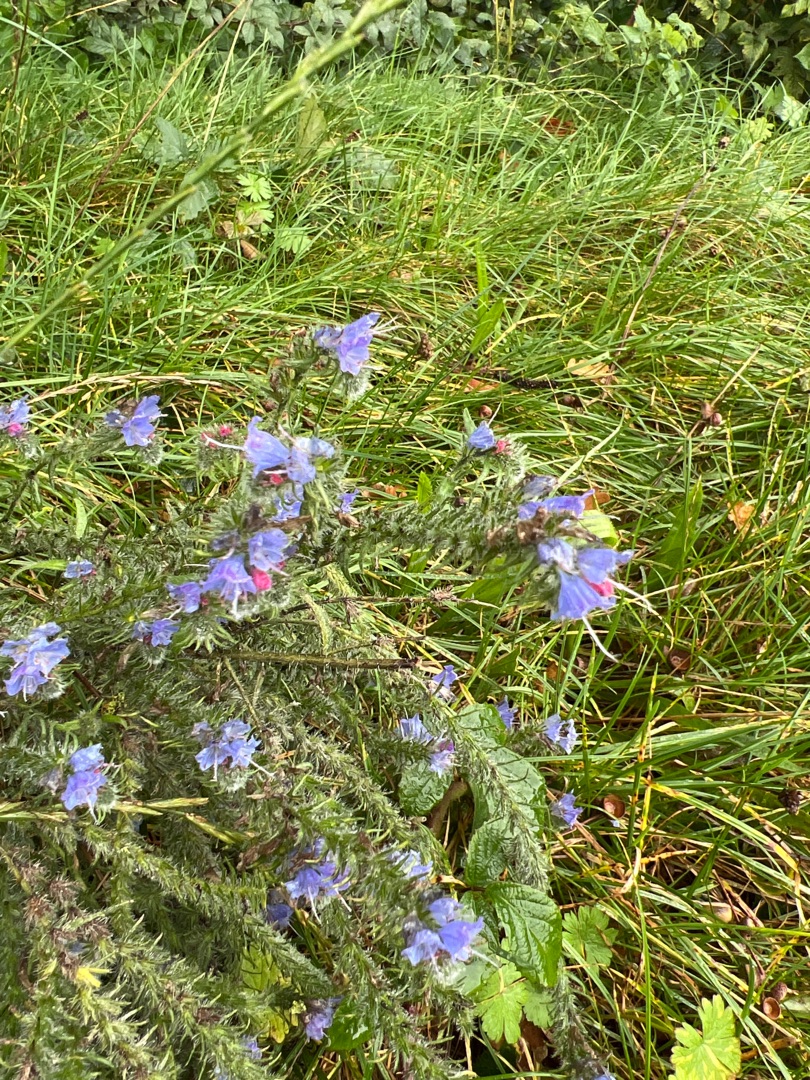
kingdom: Plantae
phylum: Tracheophyta
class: Magnoliopsida
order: Boraginales
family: Boraginaceae
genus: Echium
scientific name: Echium vulgare
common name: Slangehoved
